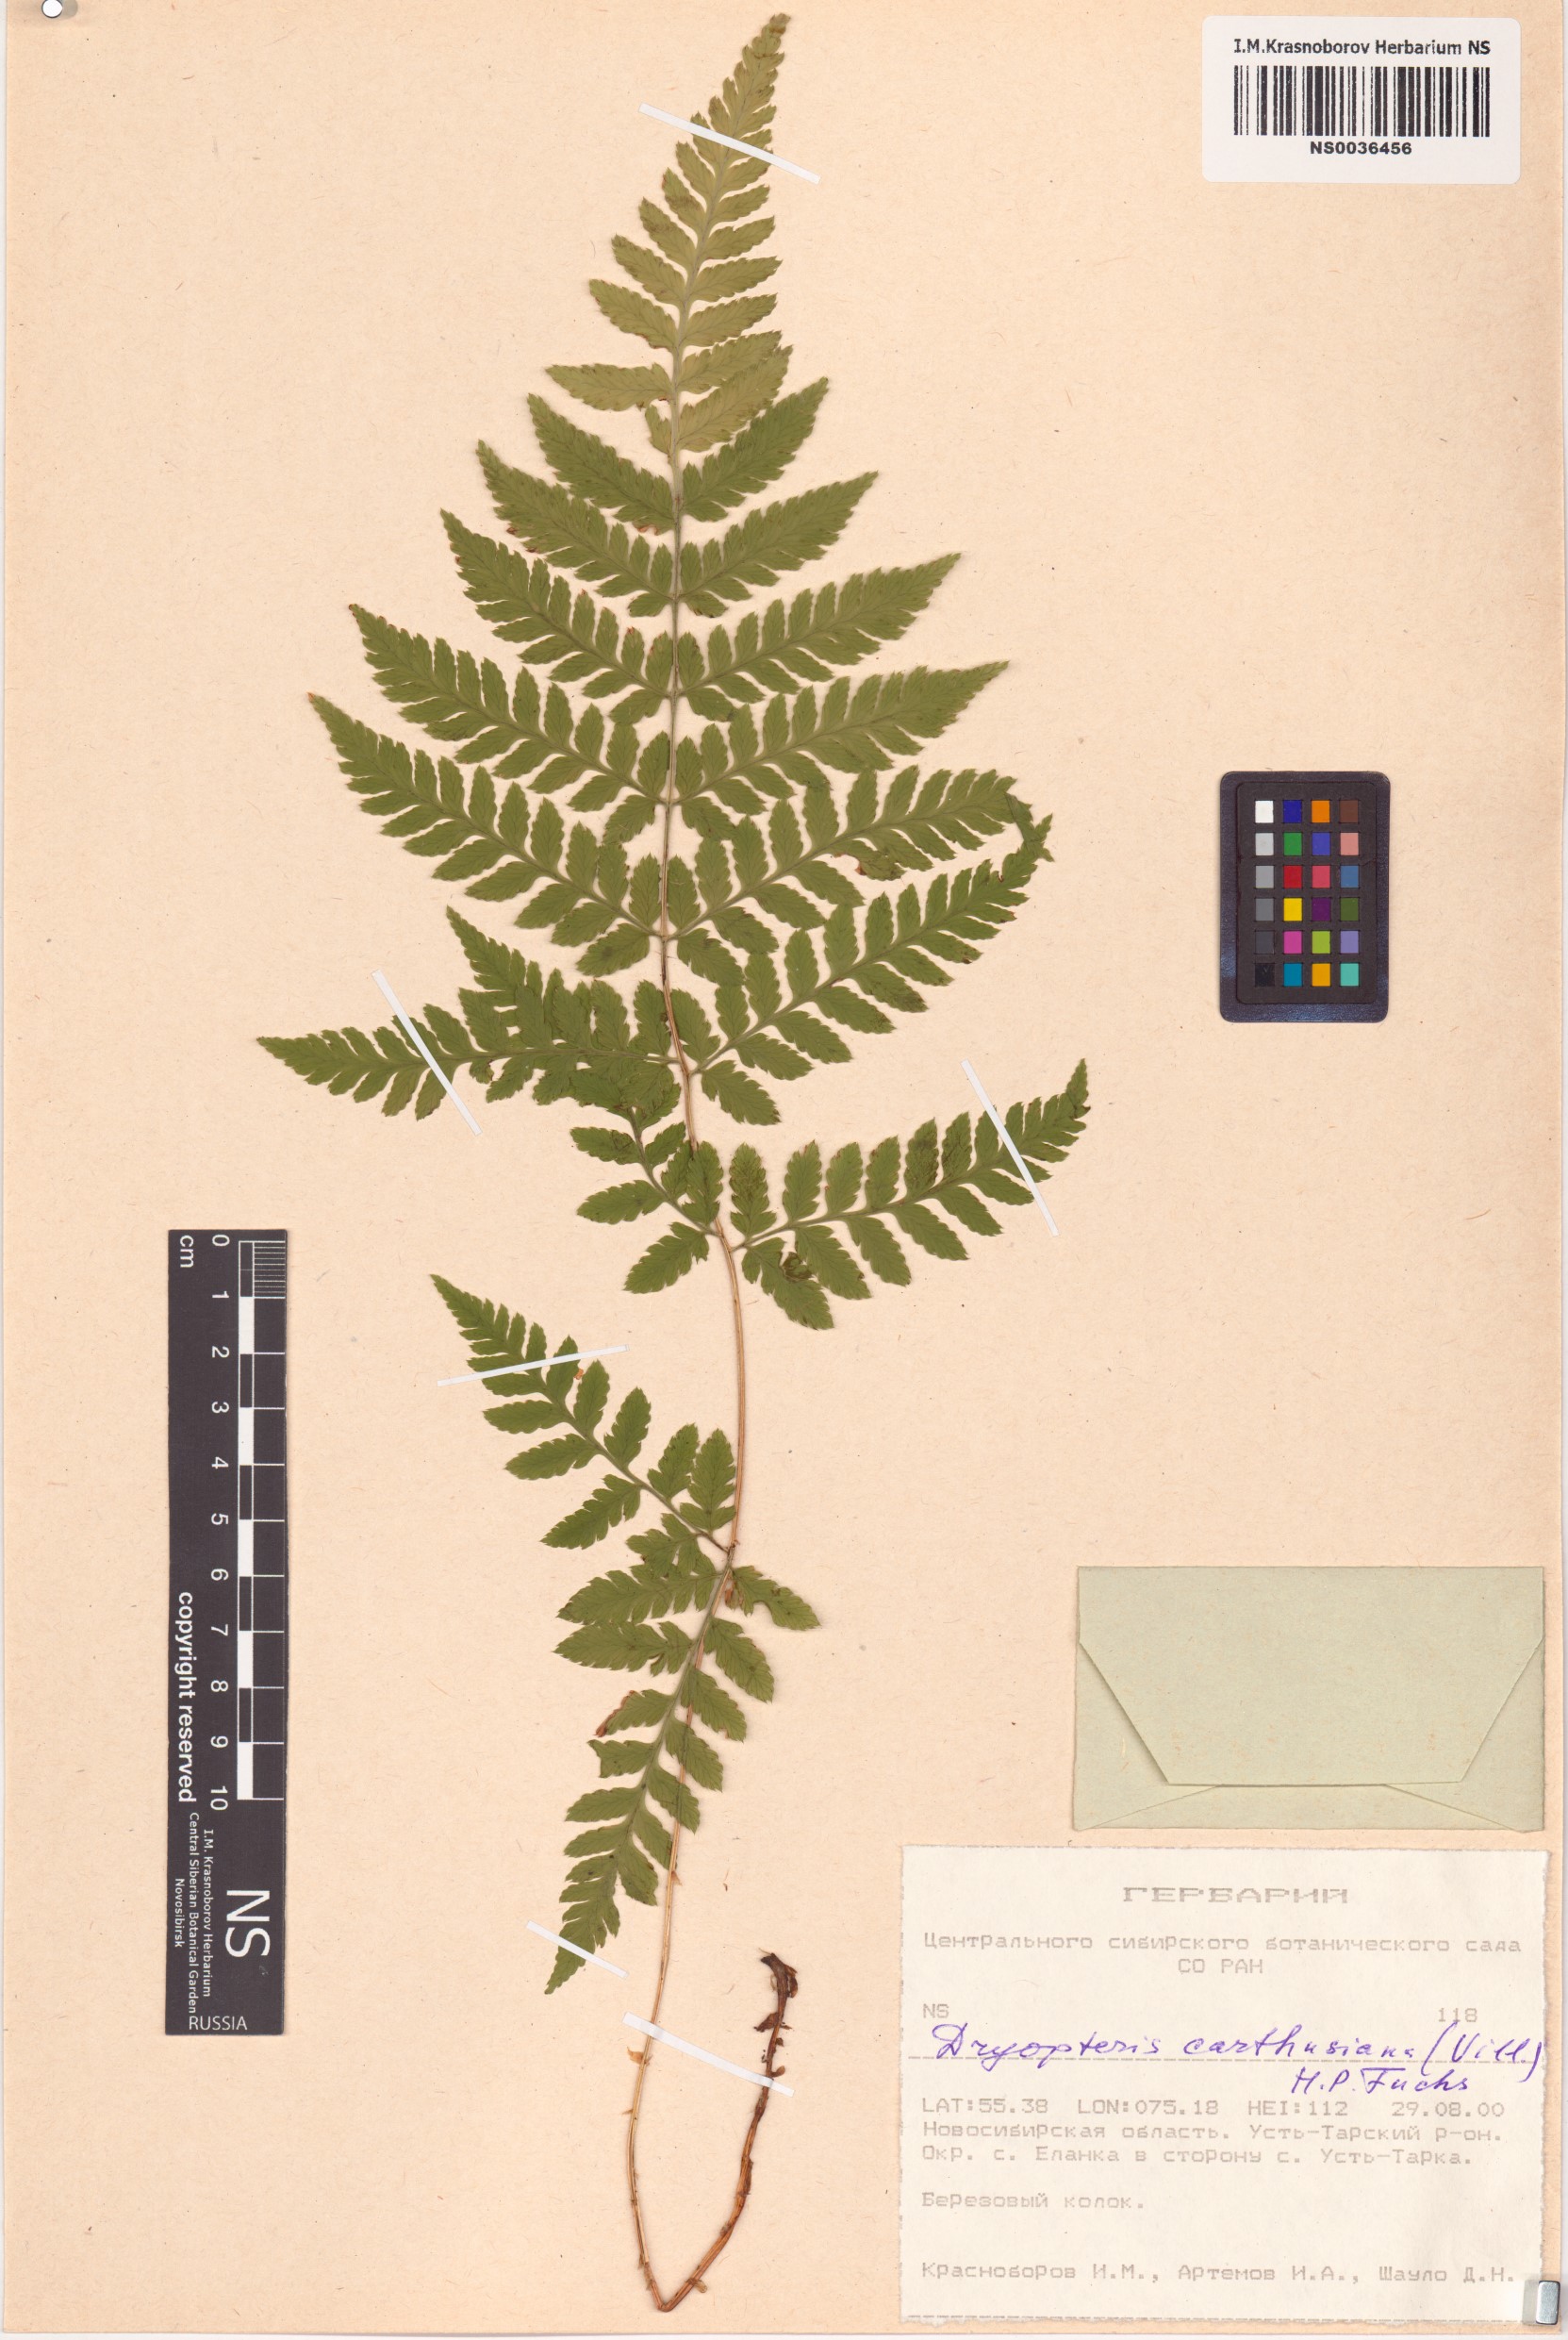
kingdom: Plantae
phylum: Tracheophyta
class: Polypodiopsida
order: Polypodiales
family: Dryopteridaceae
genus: Dryopteris
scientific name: Dryopteris carthusiana
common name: Narrow buckler-fern
